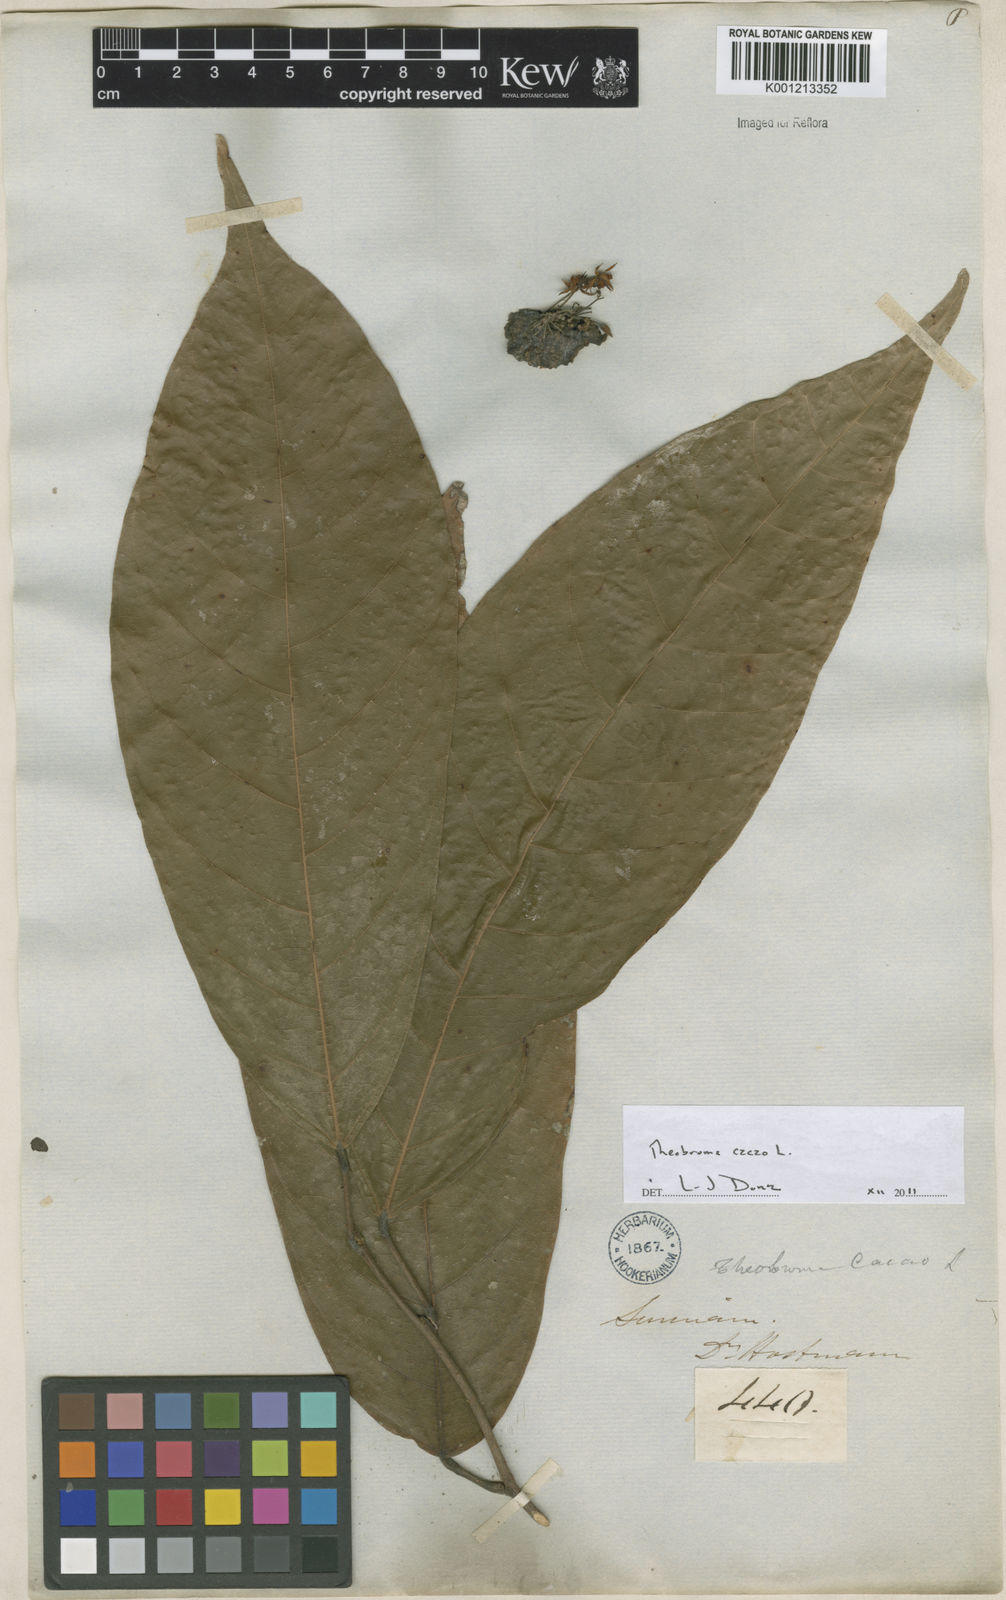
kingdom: Plantae
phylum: Tracheophyta
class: Magnoliopsida
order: Malvales
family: Malvaceae
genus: Theobroma
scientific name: Theobroma cacao
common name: Cocoa
